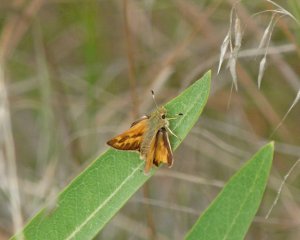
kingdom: Animalia
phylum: Arthropoda
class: Insecta
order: Lepidoptera
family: Hesperiidae
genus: Ochlodes
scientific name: Ochlodes sylvanoides
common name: Woodland Skipper
